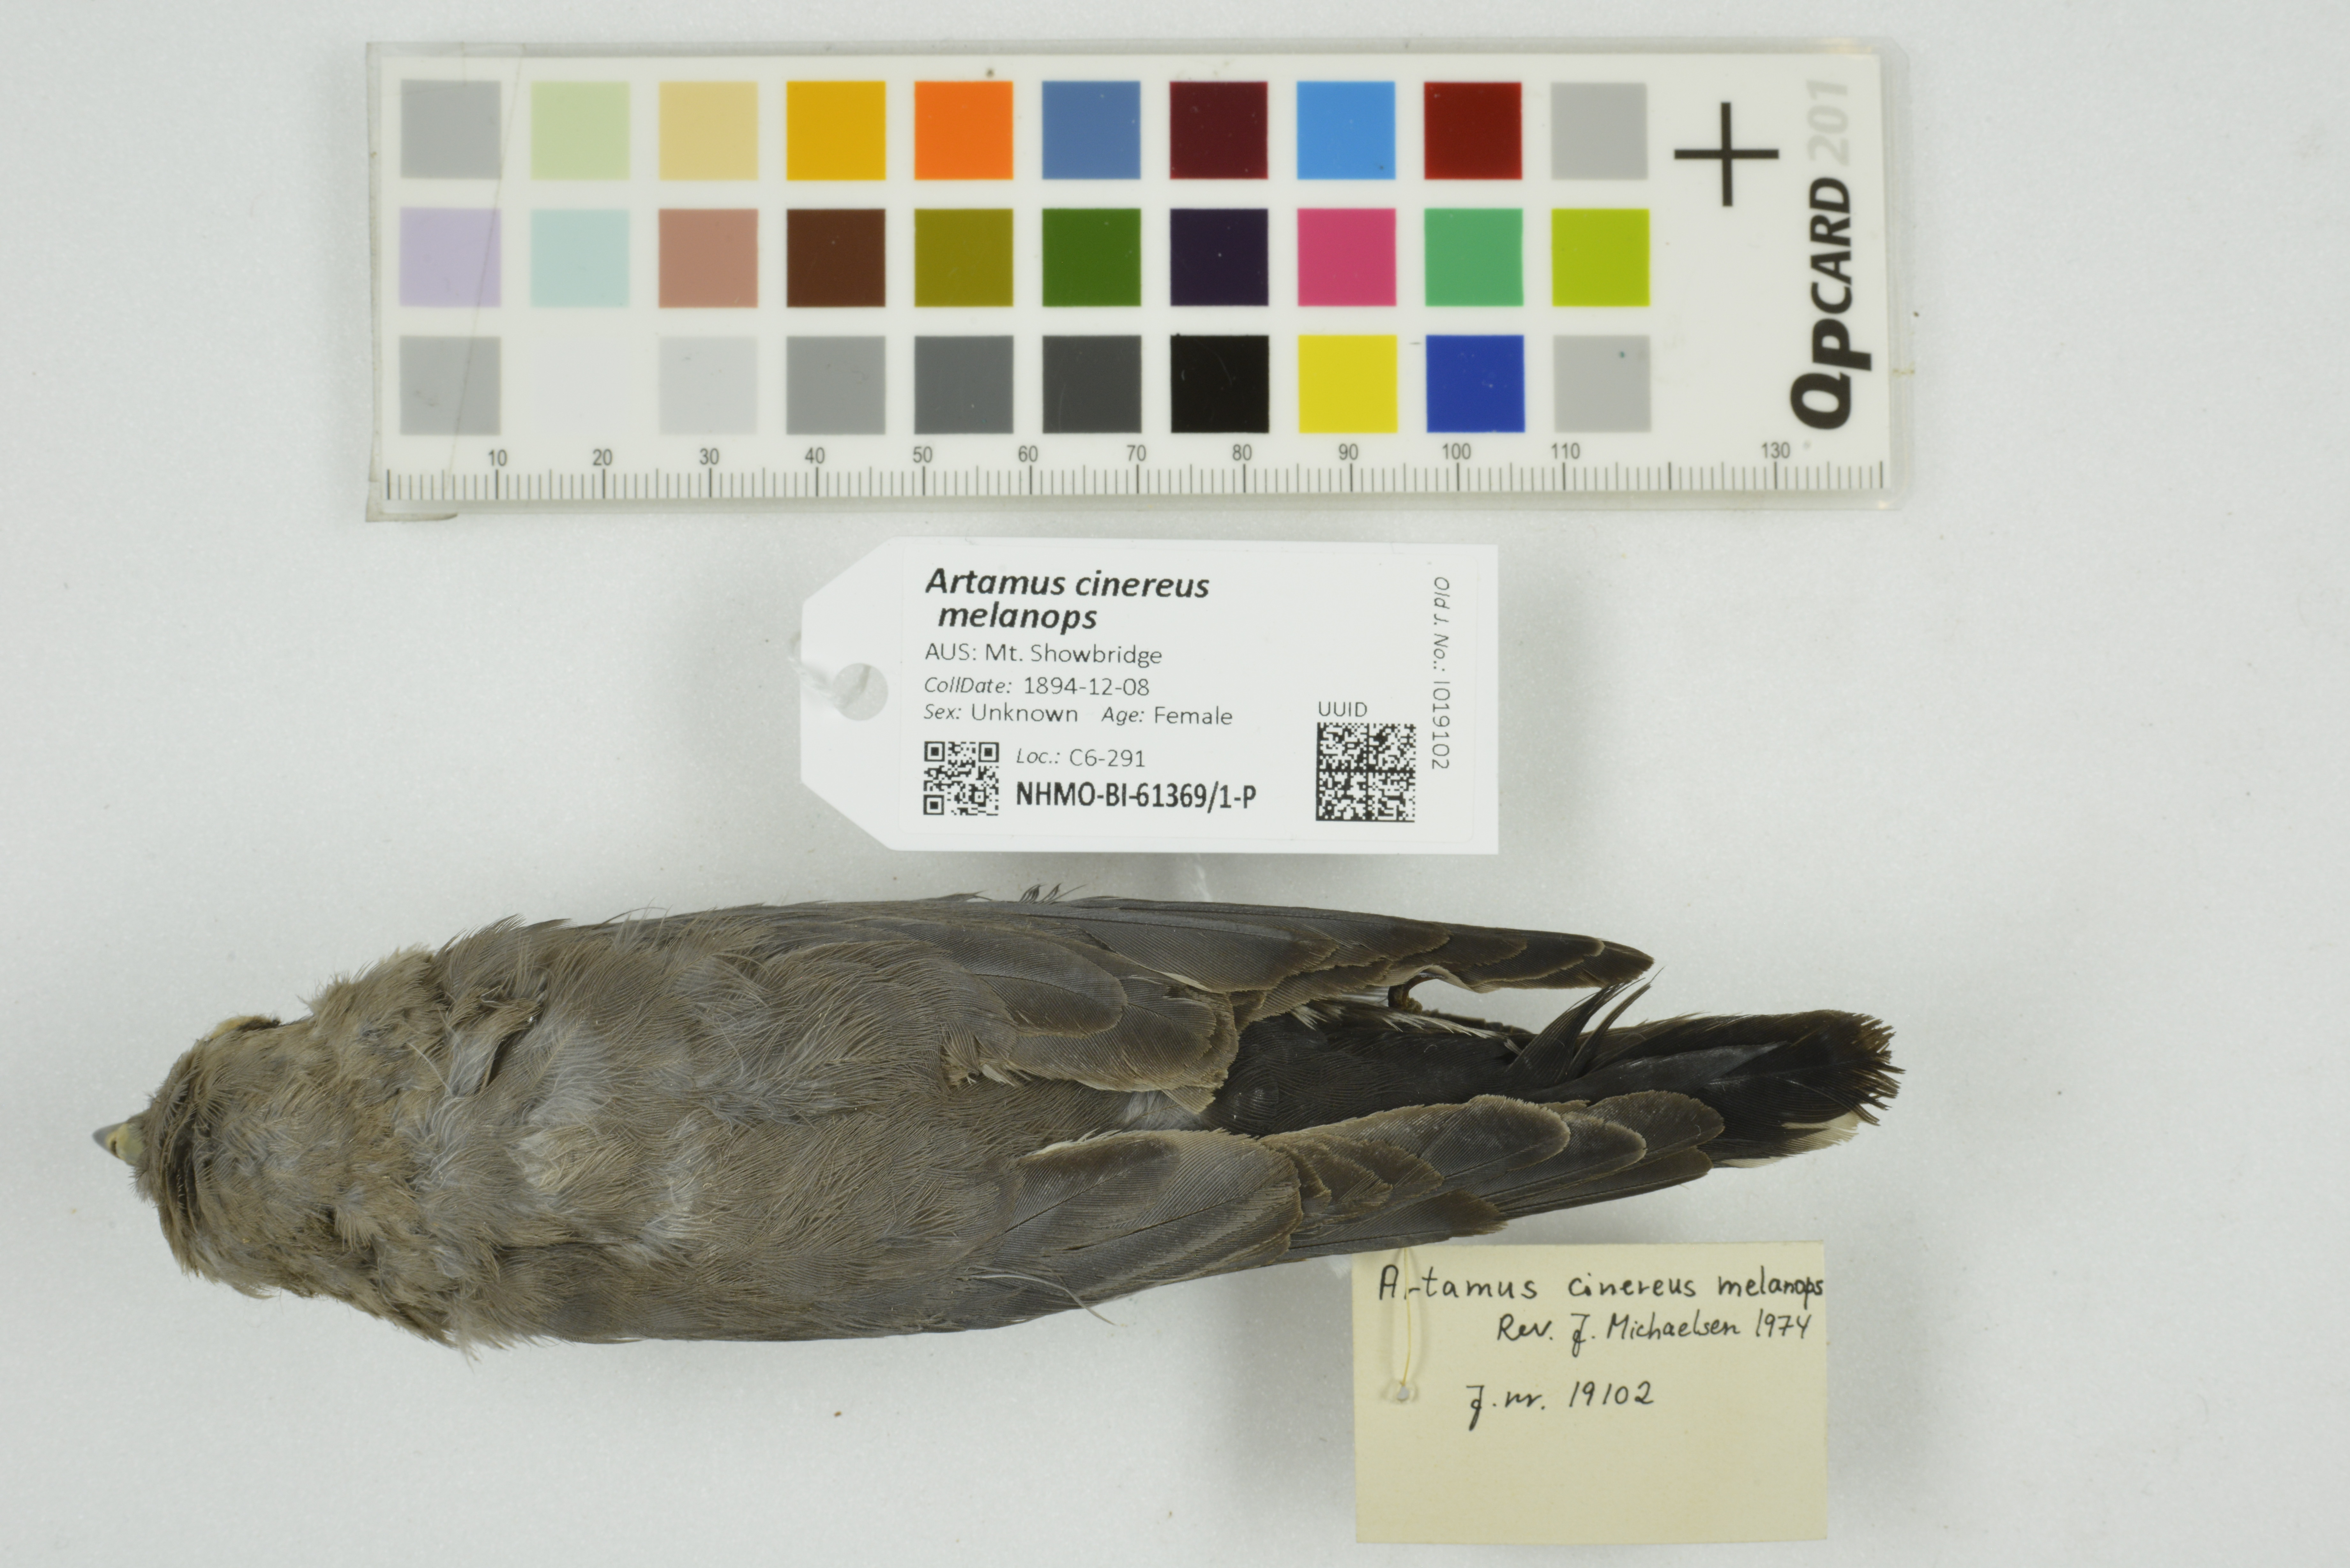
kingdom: Animalia
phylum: Chordata
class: Aves
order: Passeriformes
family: Artamidae
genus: Artamus
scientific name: Artamus cinereus
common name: Black-faced woodswallow
